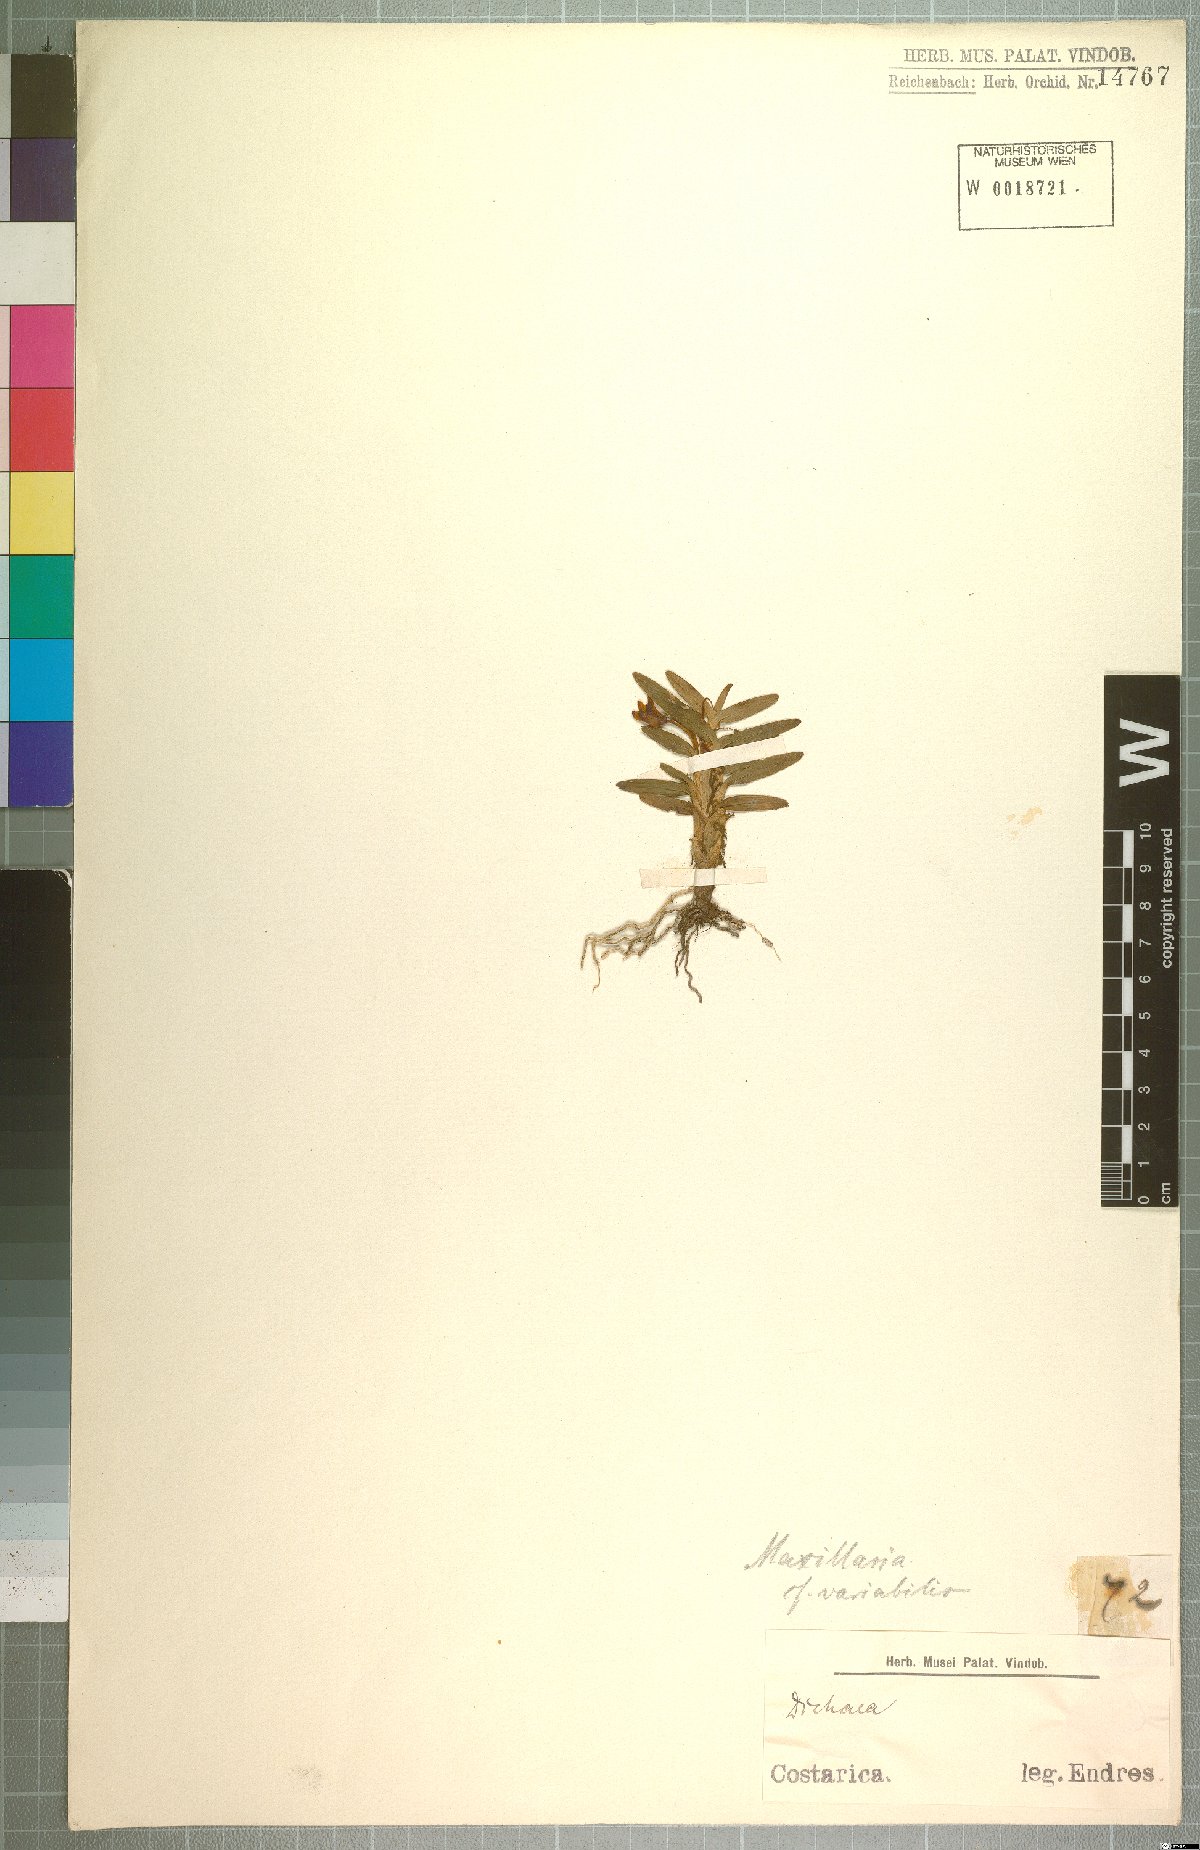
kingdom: Plantae
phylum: Tracheophyta
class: Liliopsida
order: Asparagales
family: Orchidaceae
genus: Maxillaria
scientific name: Maxillaria variabilis
